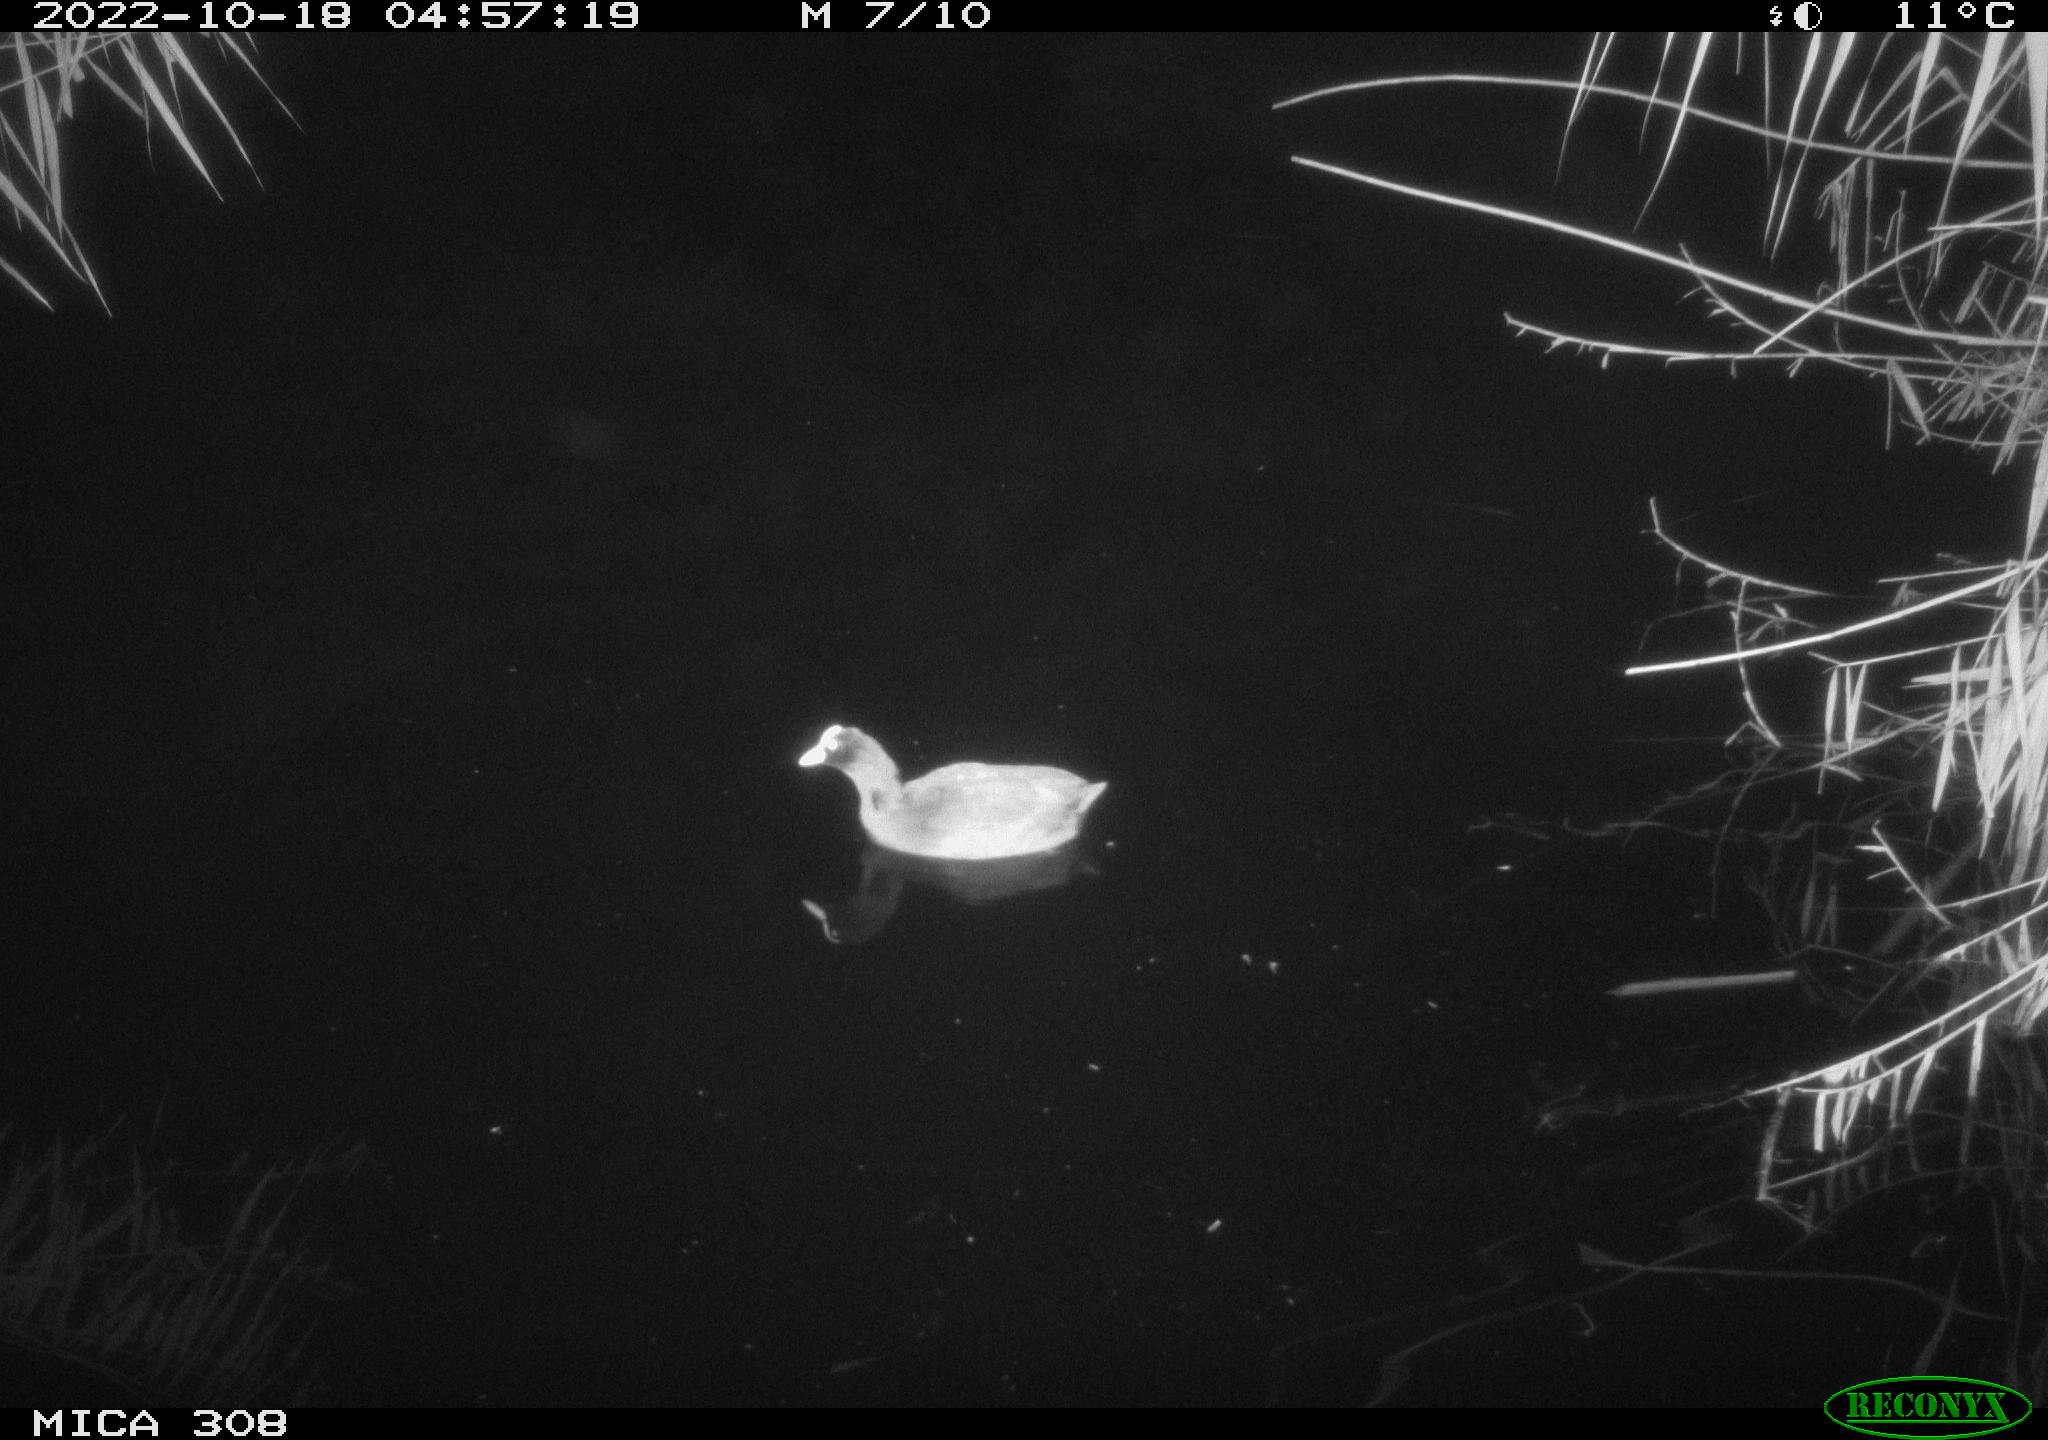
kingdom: Animalia
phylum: Chordata
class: Aves
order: Gruiformes
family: Rallidae
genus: Gallinula
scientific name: Gallinula chloropus
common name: Common moorhen
